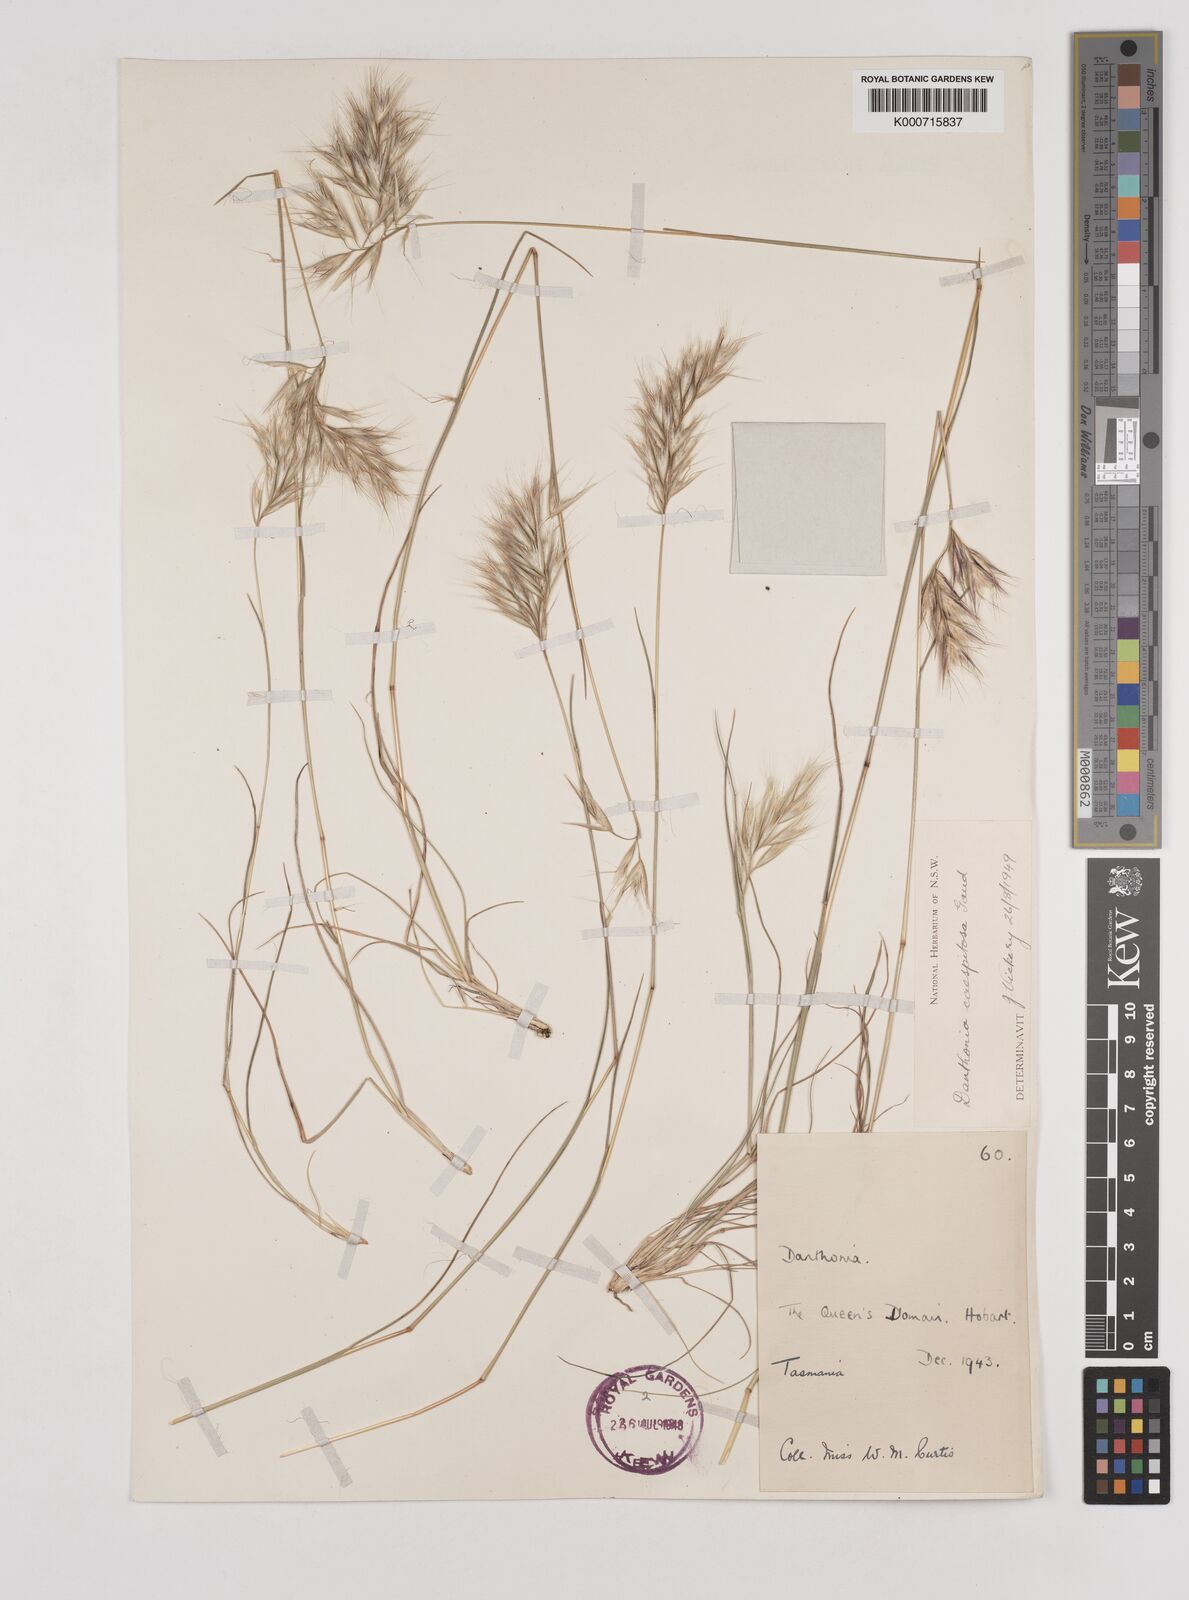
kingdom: Plantae
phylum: Tracheophyta
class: Liliopsida
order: Poales
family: Poaceae
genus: Rytidosperma
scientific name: Rytidosperma caespitosum
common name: Tufted wallaby grass
